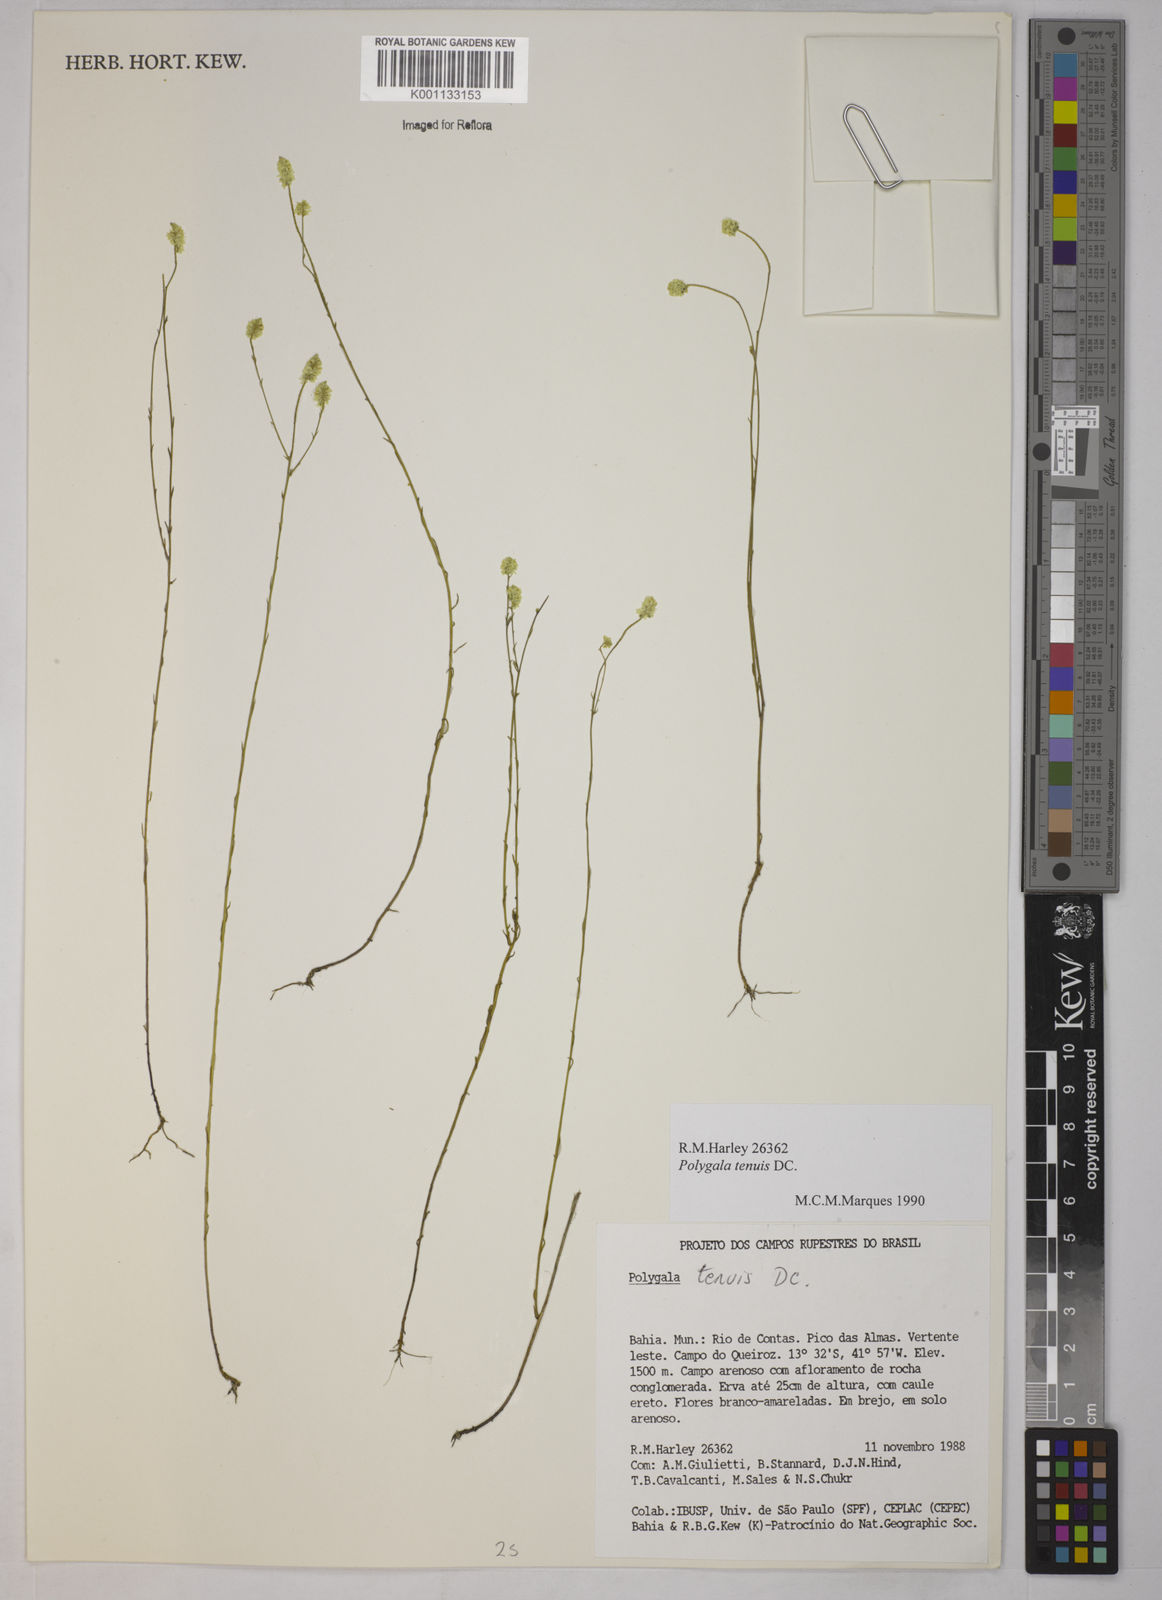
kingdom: Plantae
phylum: Tracheophyta
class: Magnoliopsida
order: Fabales
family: Polygalaceae
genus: Polygala
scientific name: Polygala tenuis
